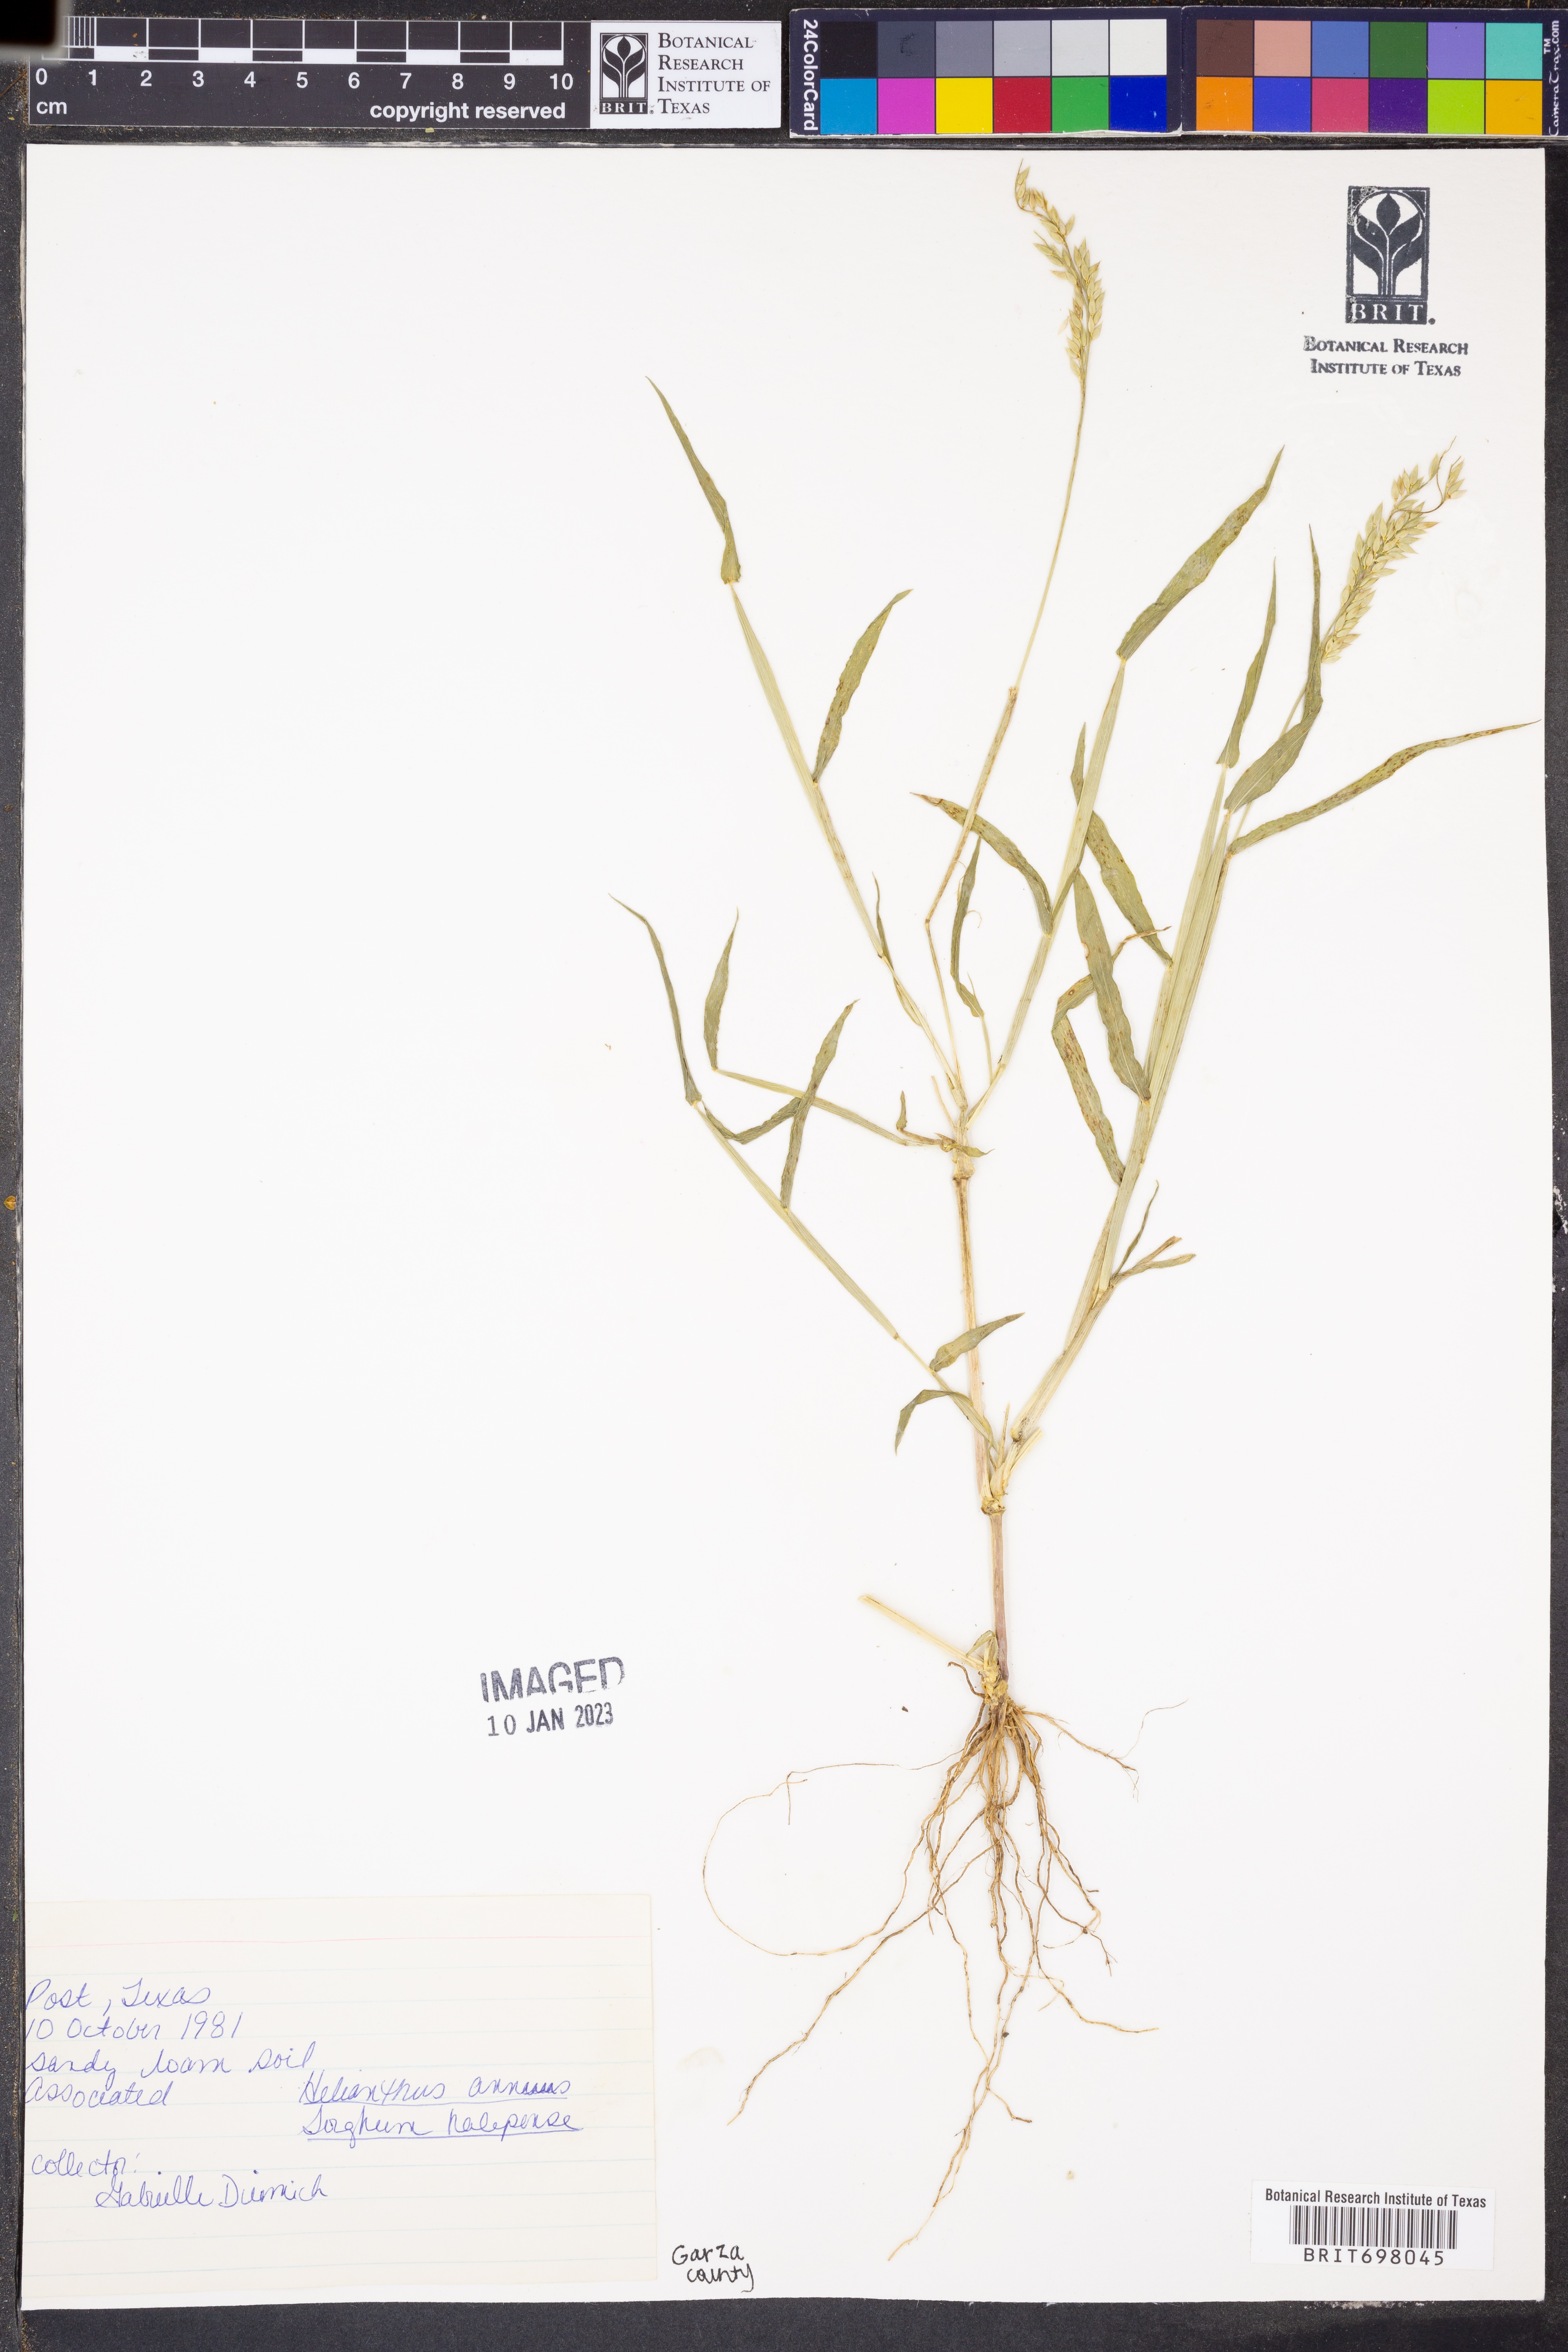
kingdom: Plantae
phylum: Tracheophyta
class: Liliopsida
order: Poales
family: Poaceae
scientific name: Poaceae
